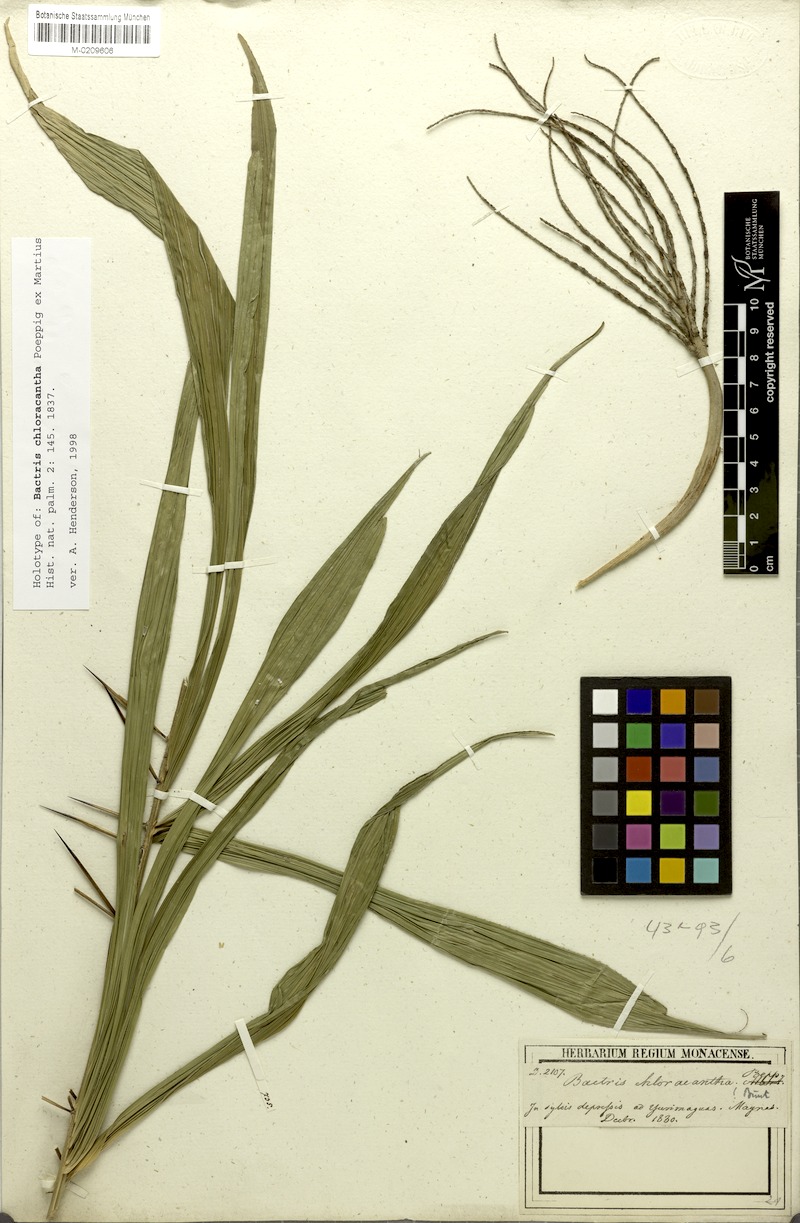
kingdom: Plantae
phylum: Tracheophyta
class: Liliopsida
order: Arecales
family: Arecaceae
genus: Bactris
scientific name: Bactris maraja
